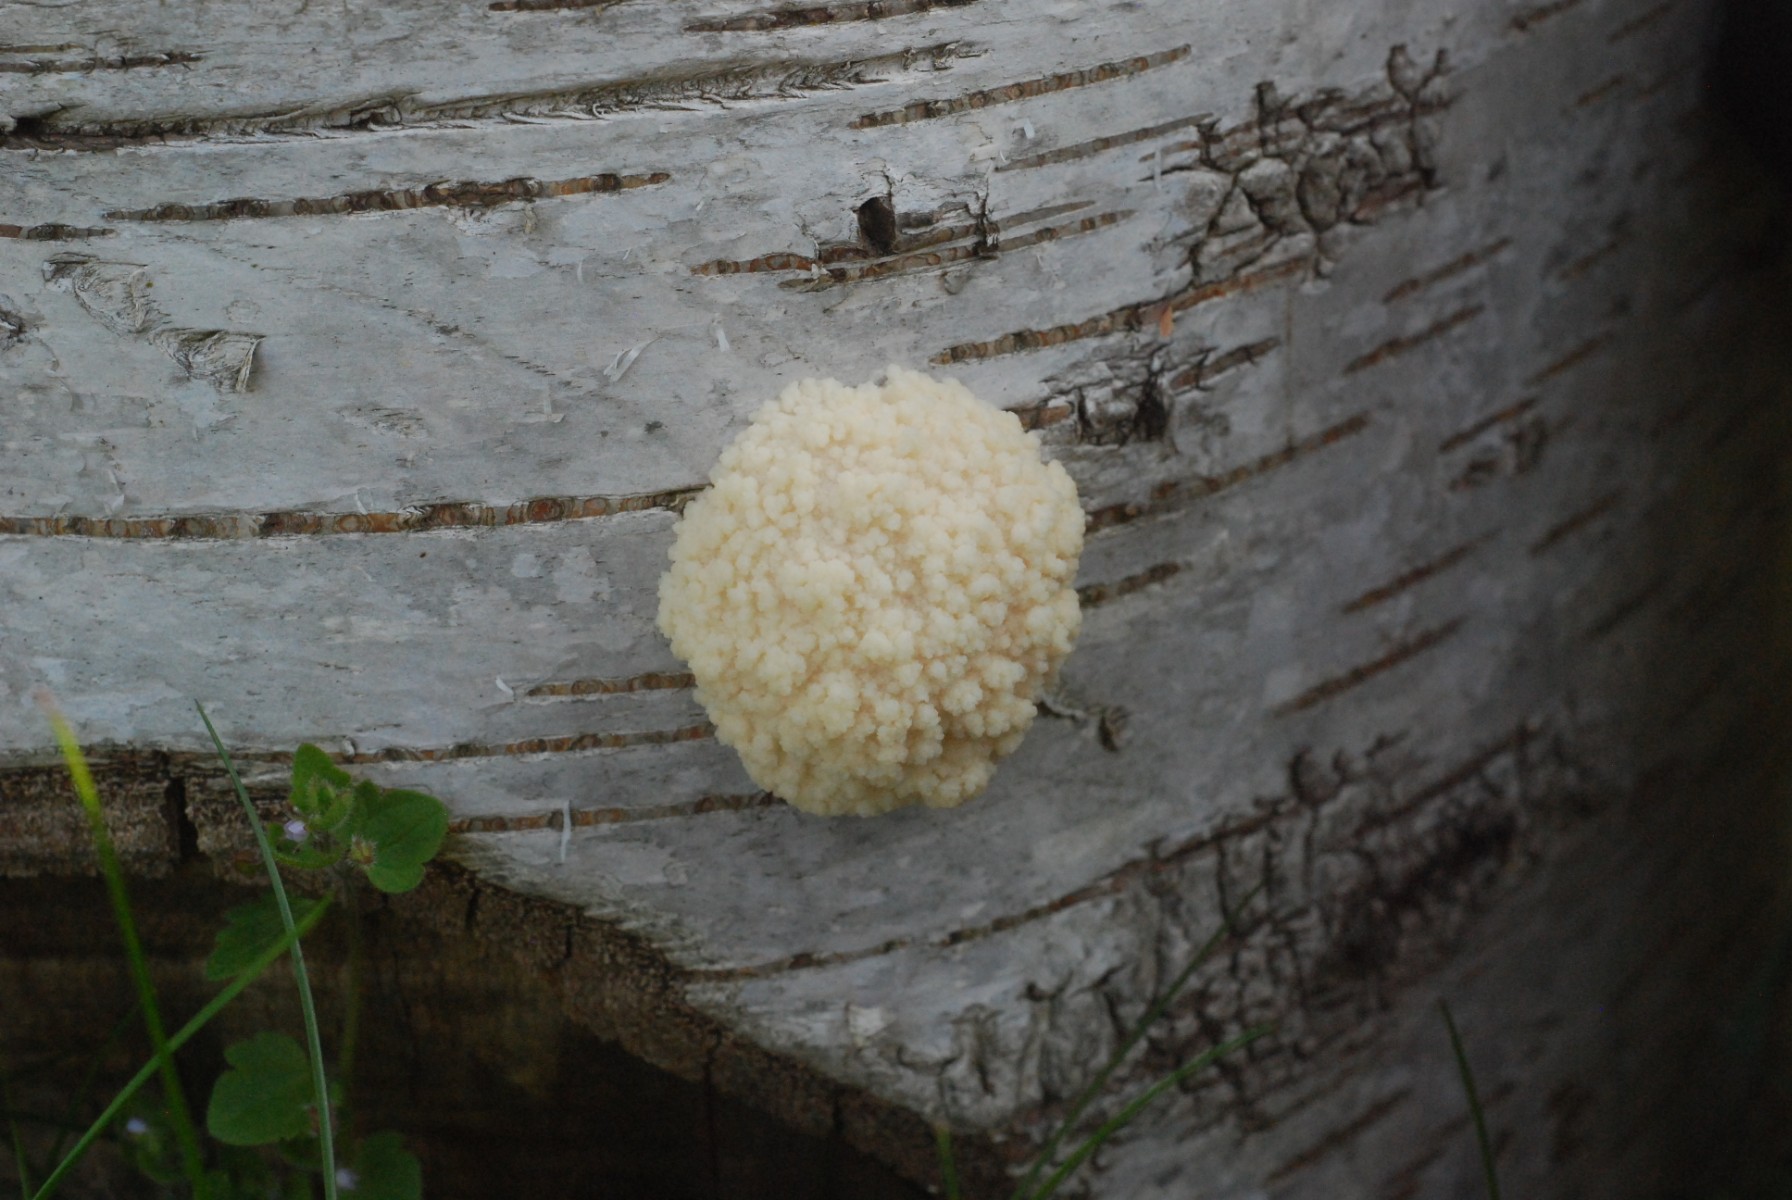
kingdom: Protozoa
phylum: Mycetozoa
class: Myxomycetes
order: Cribrariales
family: Tubiferaceae
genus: Reticularia
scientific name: Reticularia lycoperdon
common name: skinnende støvpude
